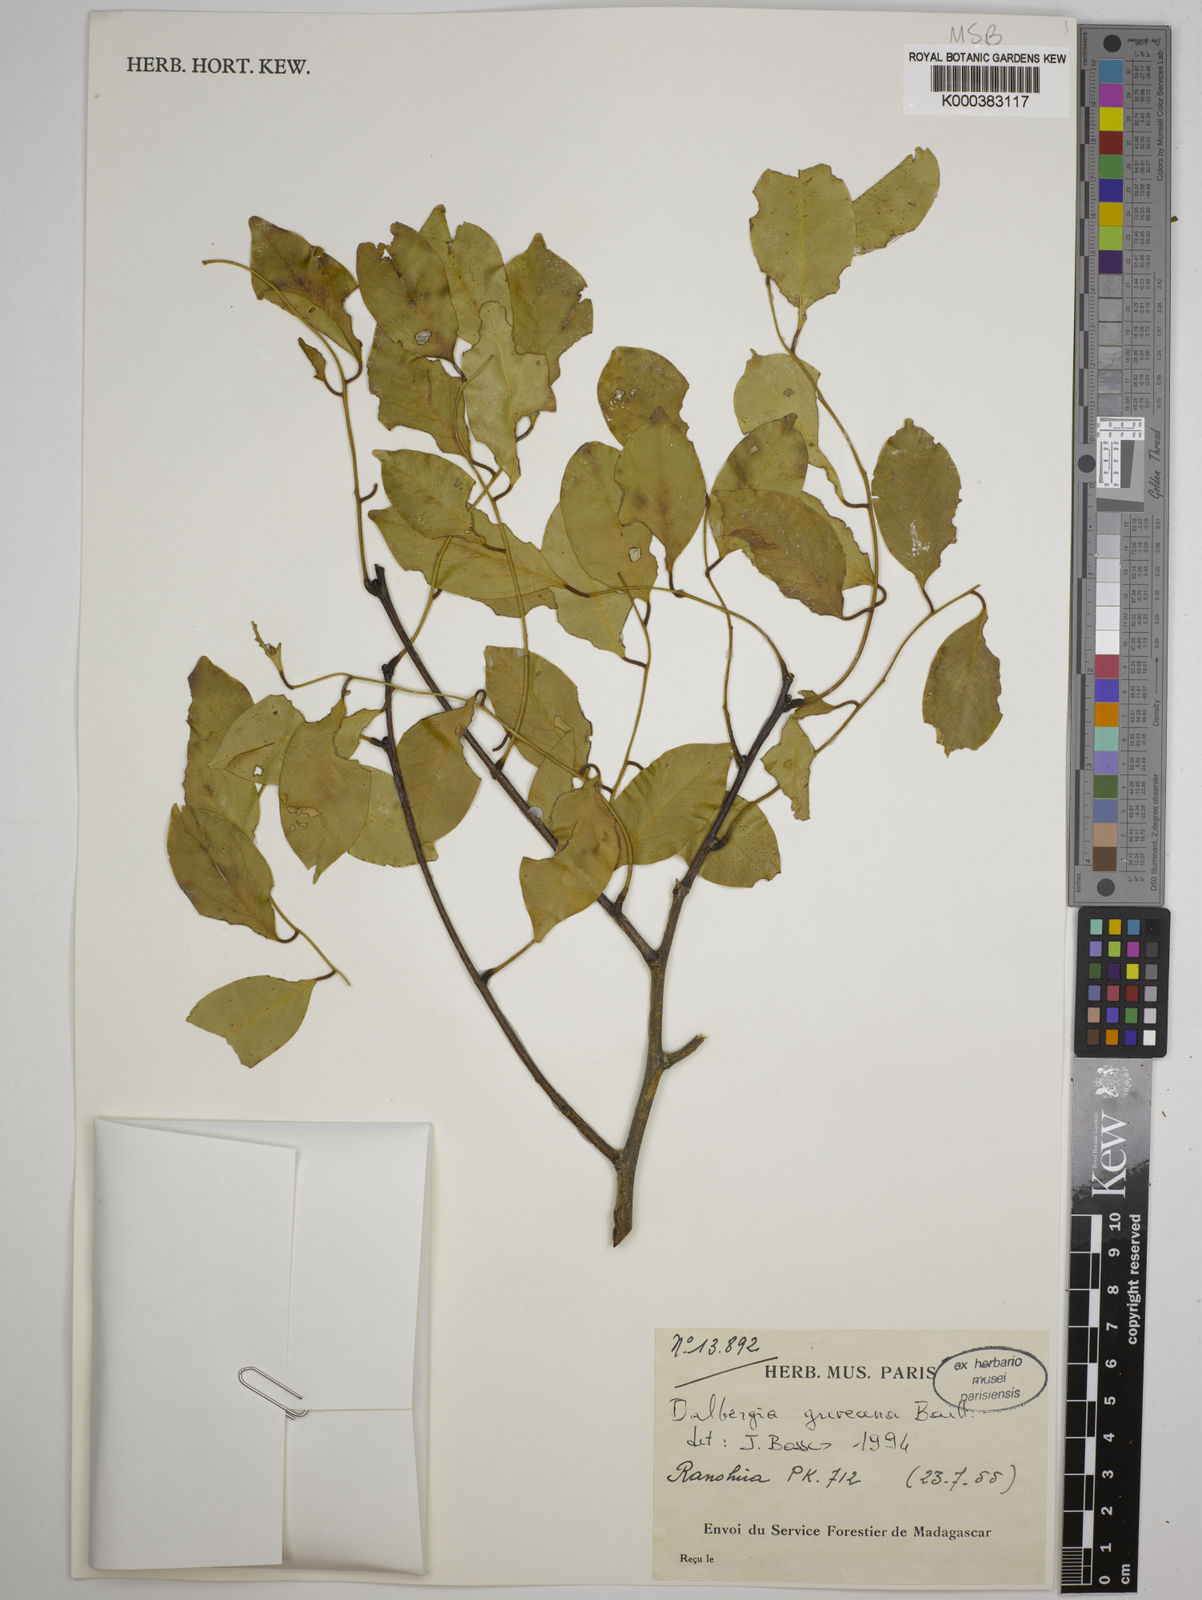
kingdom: Plantae
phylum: Tracheophyta
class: Magnoliopsida
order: Fabales
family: Fabaceae
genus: Dalbergia
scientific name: Dalbergia greveana
